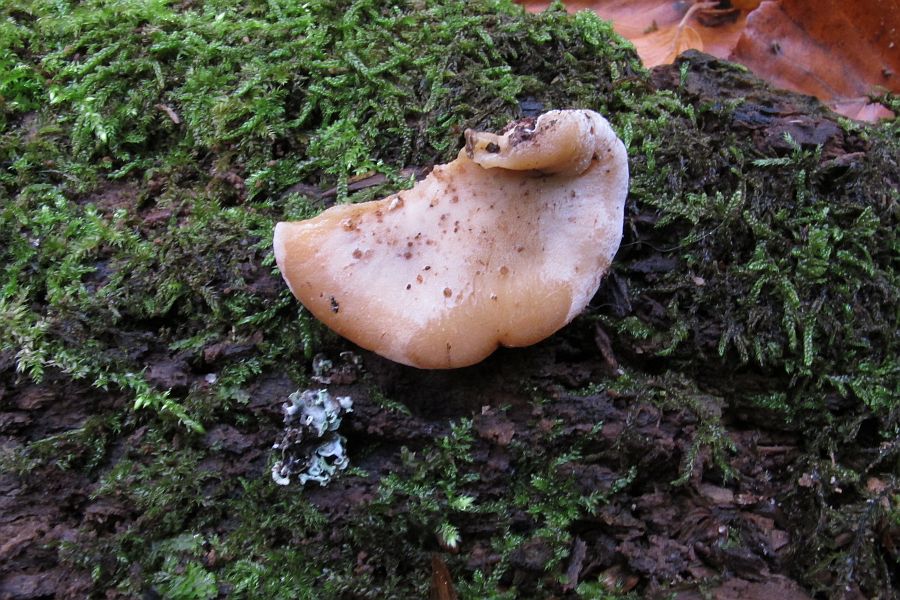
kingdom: Fungi
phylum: Basidiomycota
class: Agaricomycetes
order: Polyporales
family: Ischnodermataceae
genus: Ischnoderma
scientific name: Ischnoderma resinosum
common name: løv-tjæreporesvamp
